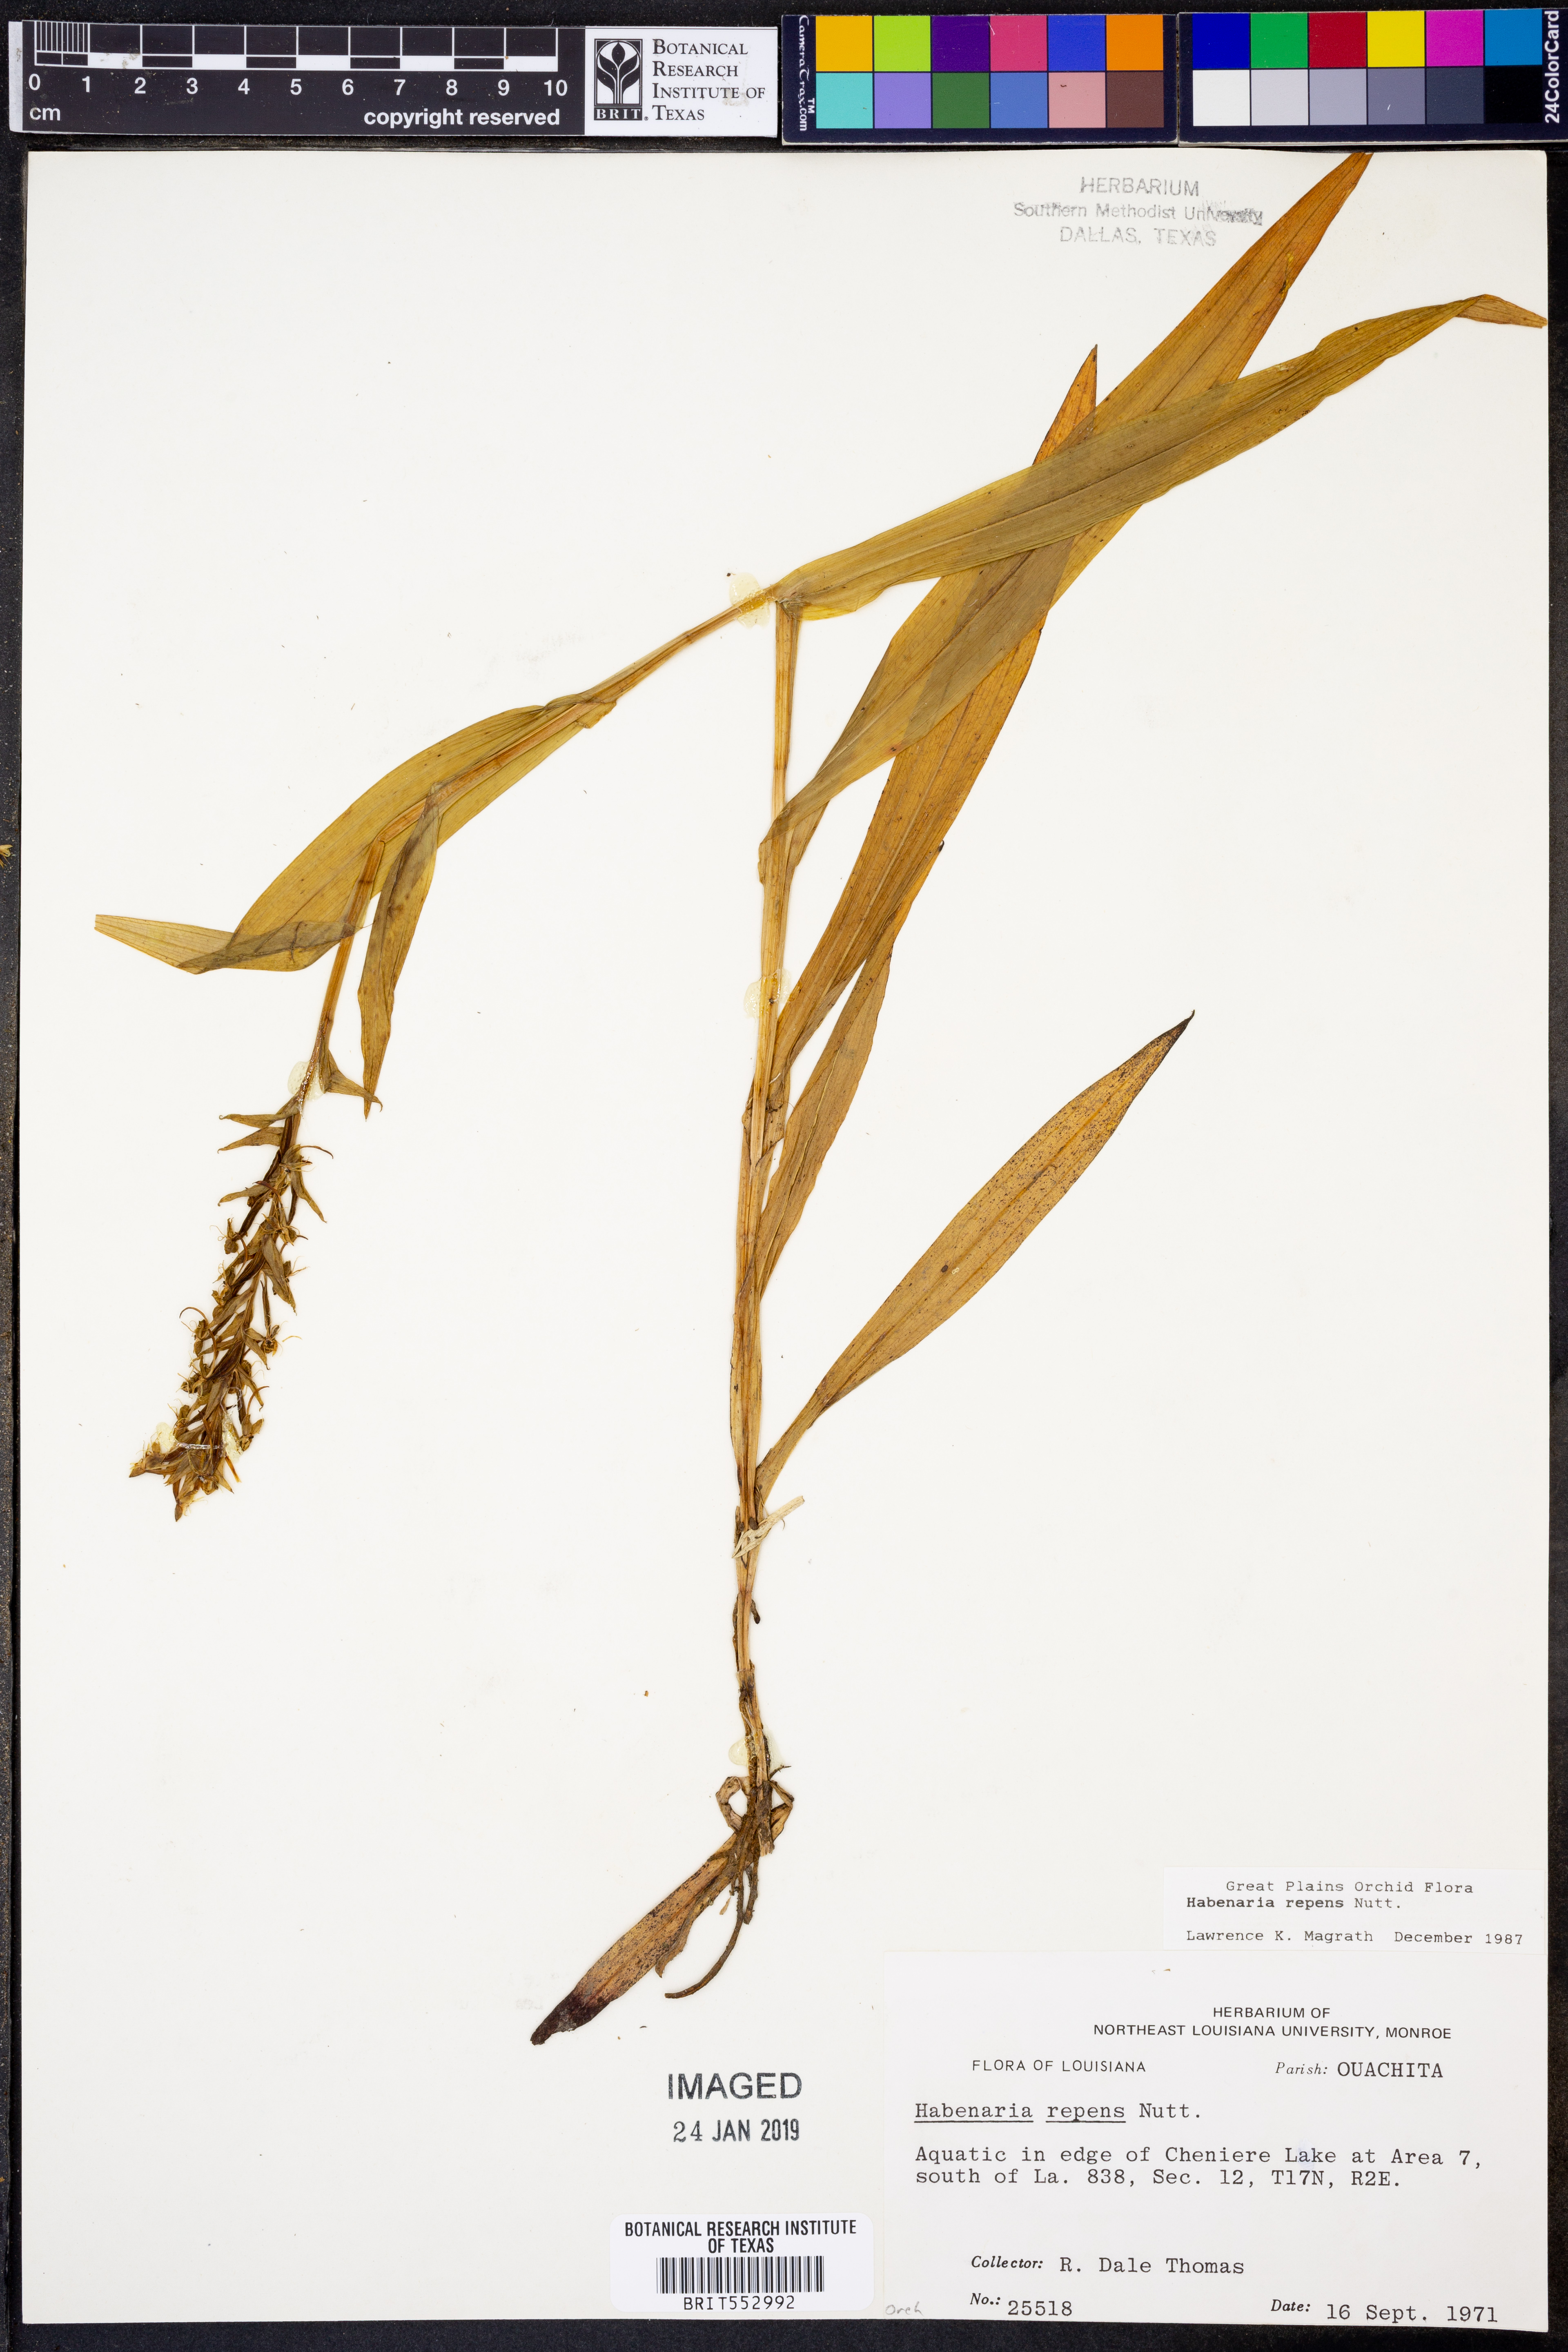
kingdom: Plantae
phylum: Tracheophyta
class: Liliopsida
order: Asparagales
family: Orchidaceae
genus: Habenaria
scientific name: Habenaria repens
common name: Water orchid
